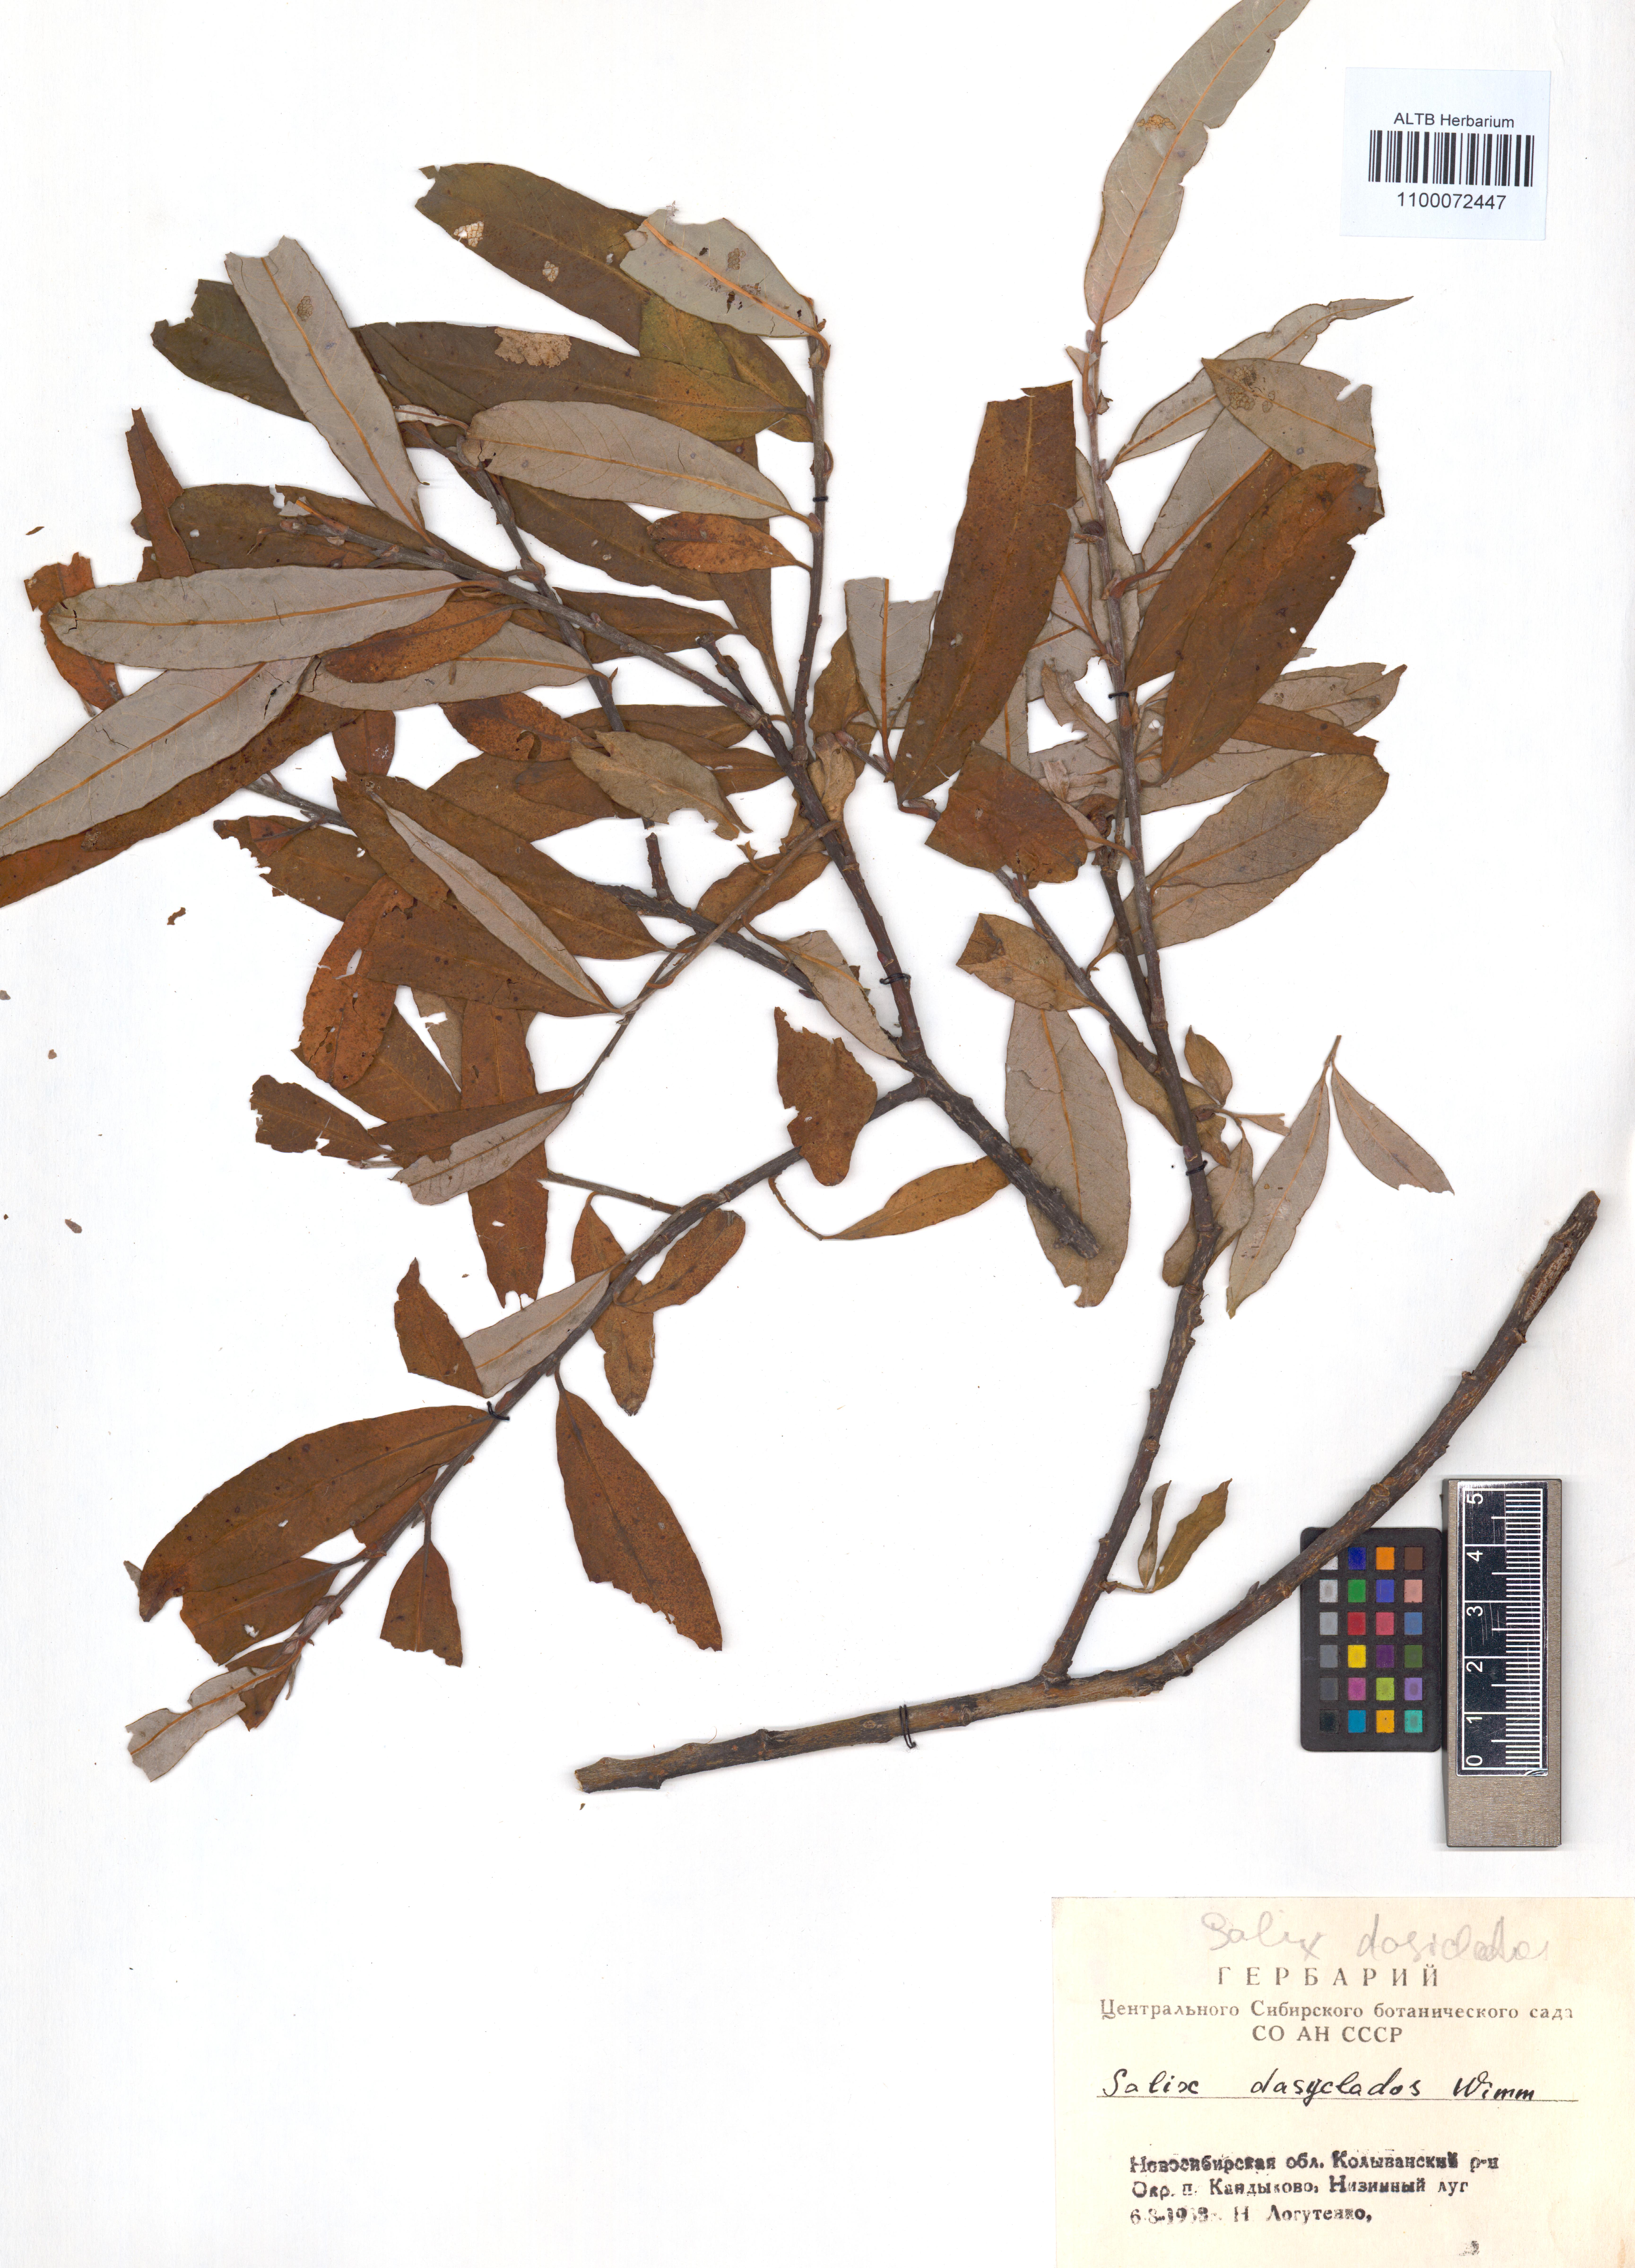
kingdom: Plantae
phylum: Tracheophyta
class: Magnoliopsida
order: Malpighiales
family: Salicaceae
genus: Salix
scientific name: Salix gmelinii
